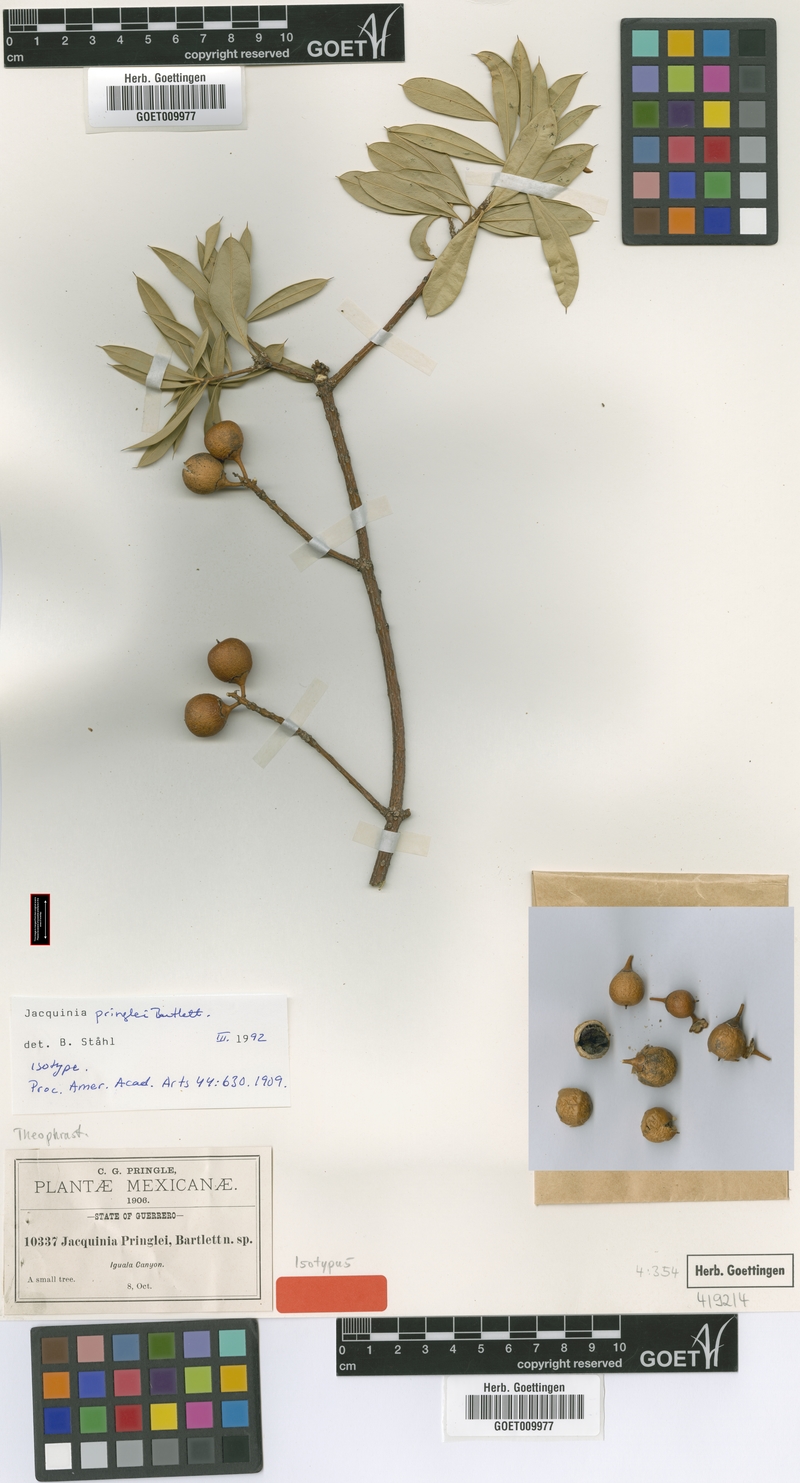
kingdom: Plantae
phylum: Tracheophyta
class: Magnoliopsida
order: Ericales
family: Primulaceae
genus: Bonellia
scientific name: Bonellia pringlei
